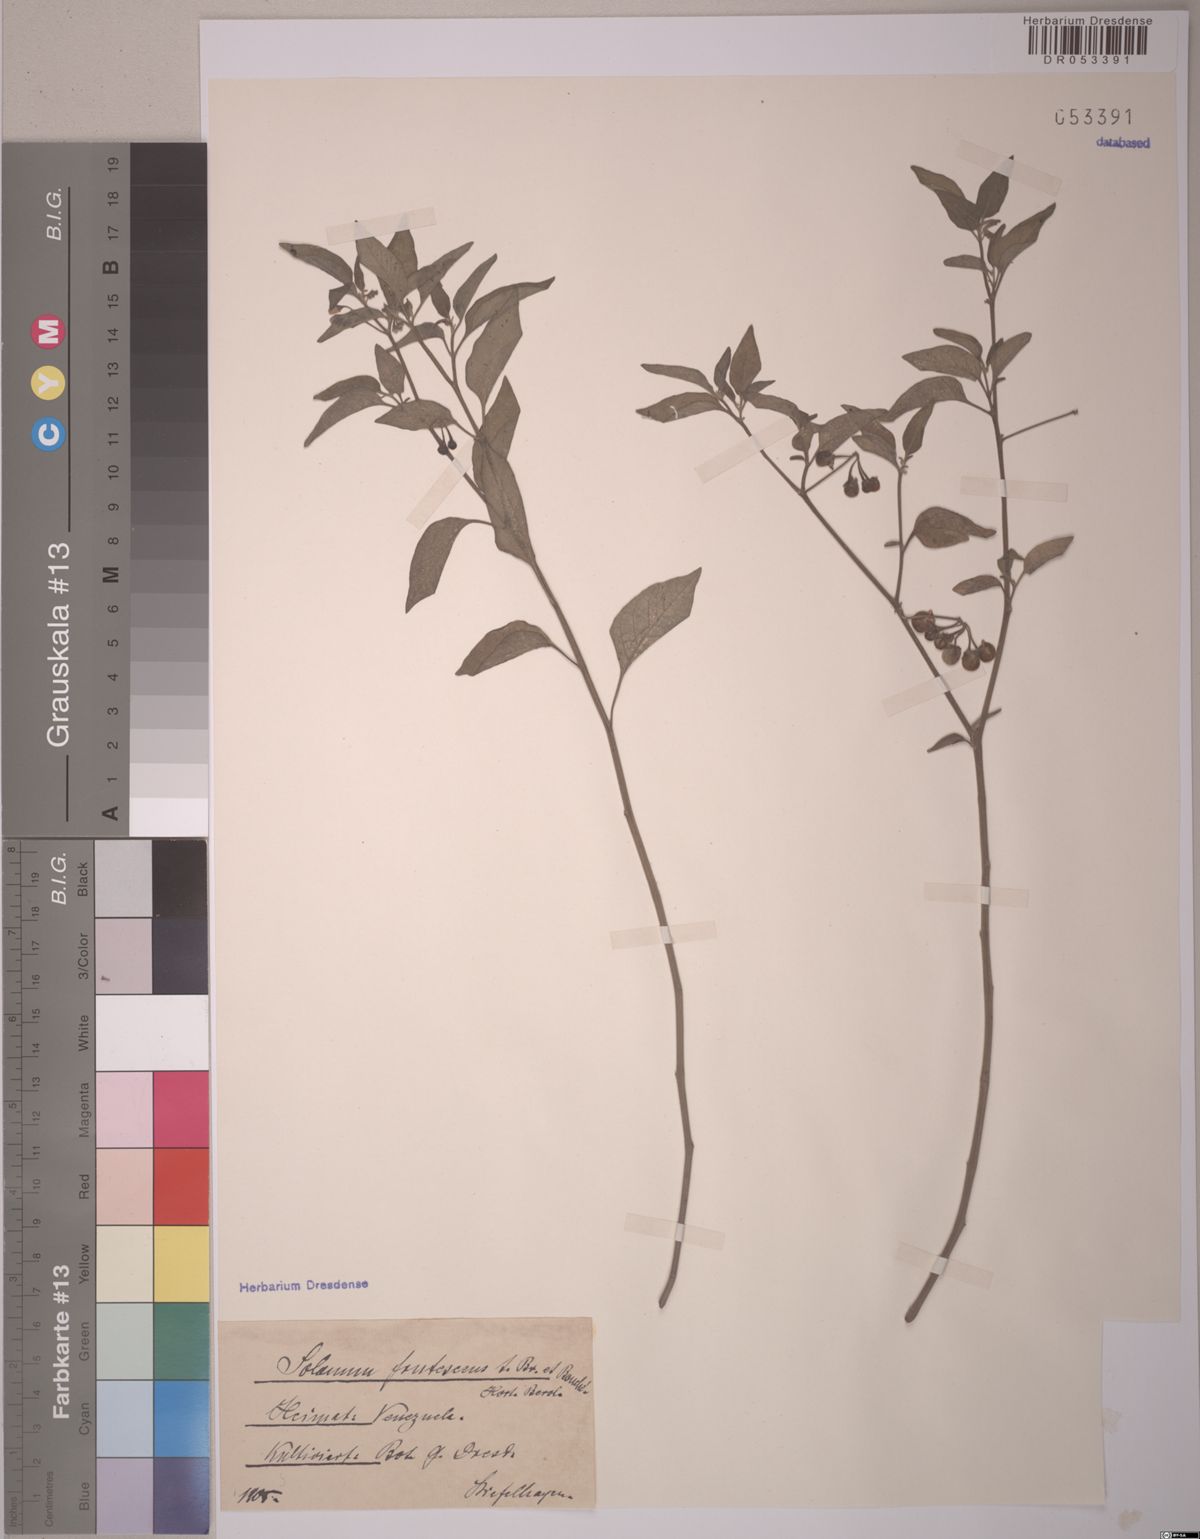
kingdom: Plantae
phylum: Tracheophyta
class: Magnoliopsida
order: Solanales
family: Solanaceae
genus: Solanum
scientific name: Solanum macrotonum
